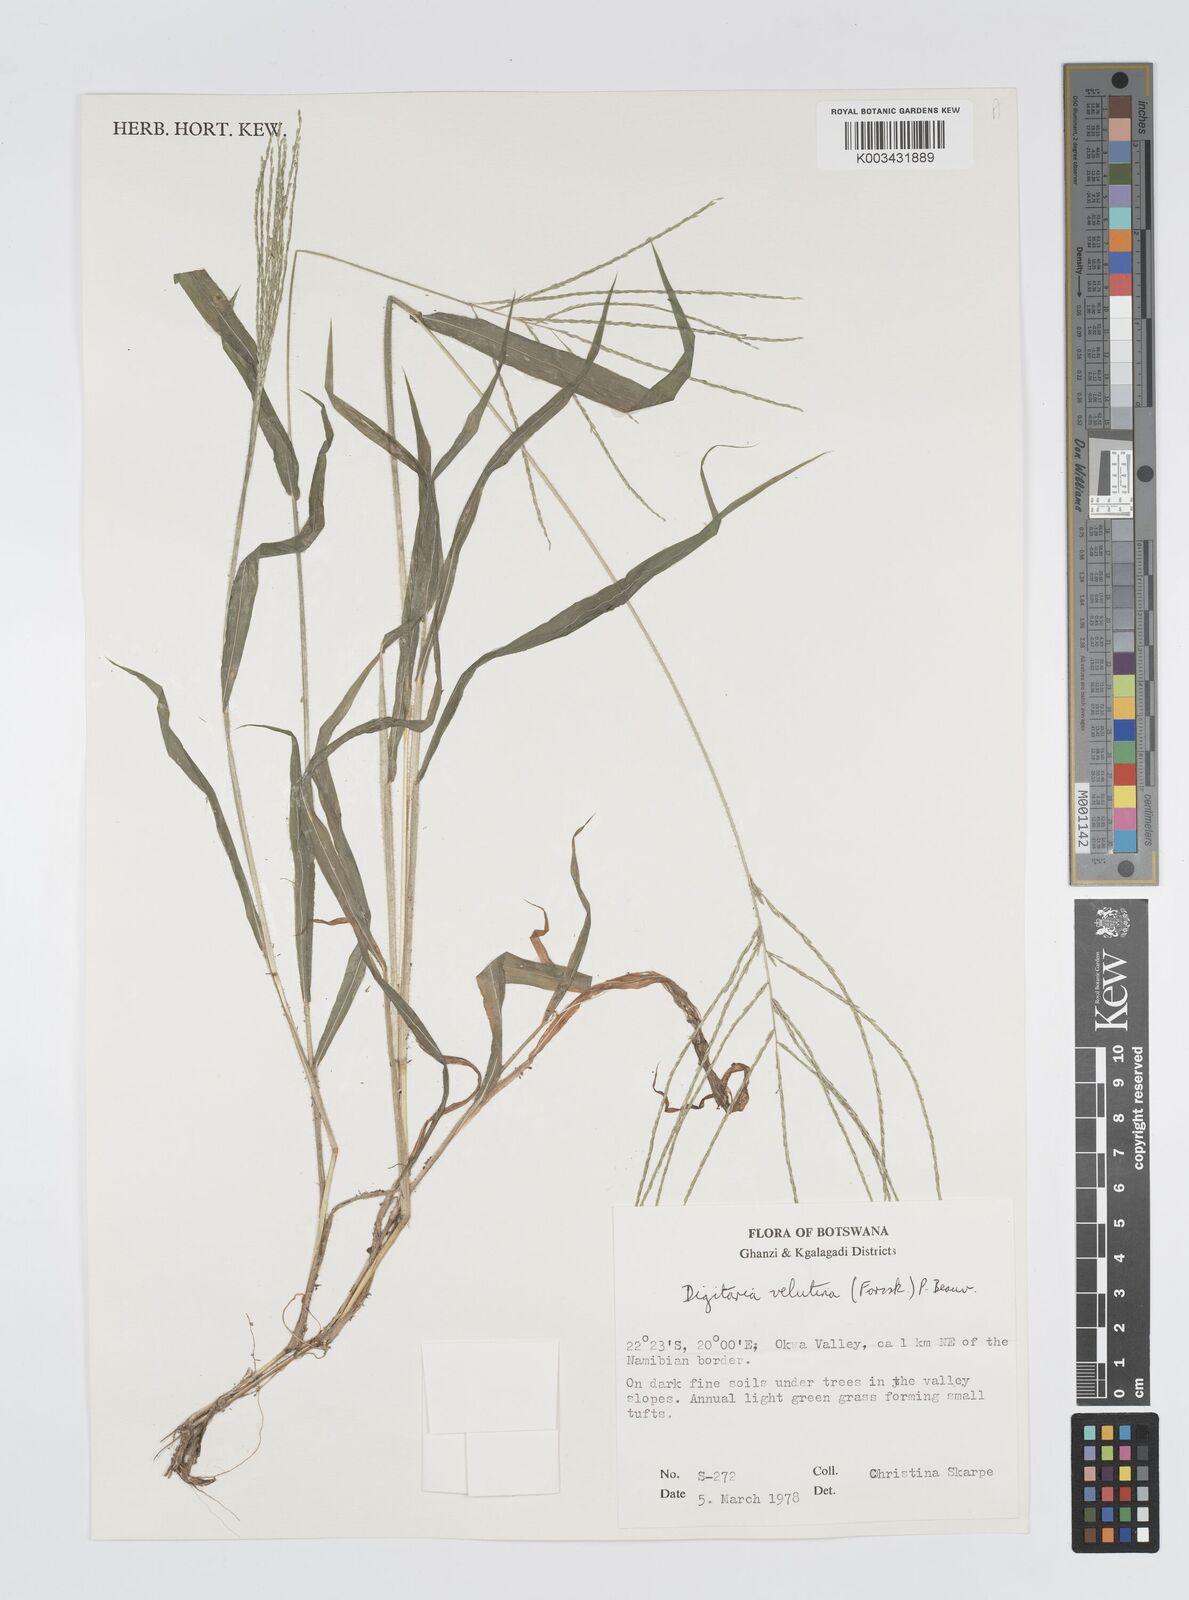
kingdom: Plantae
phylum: Tracheophyta
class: Liliopsida
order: Poales
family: Poaceae
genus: Digitaria
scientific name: Digitaria velutina
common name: Long-plume finger grass
